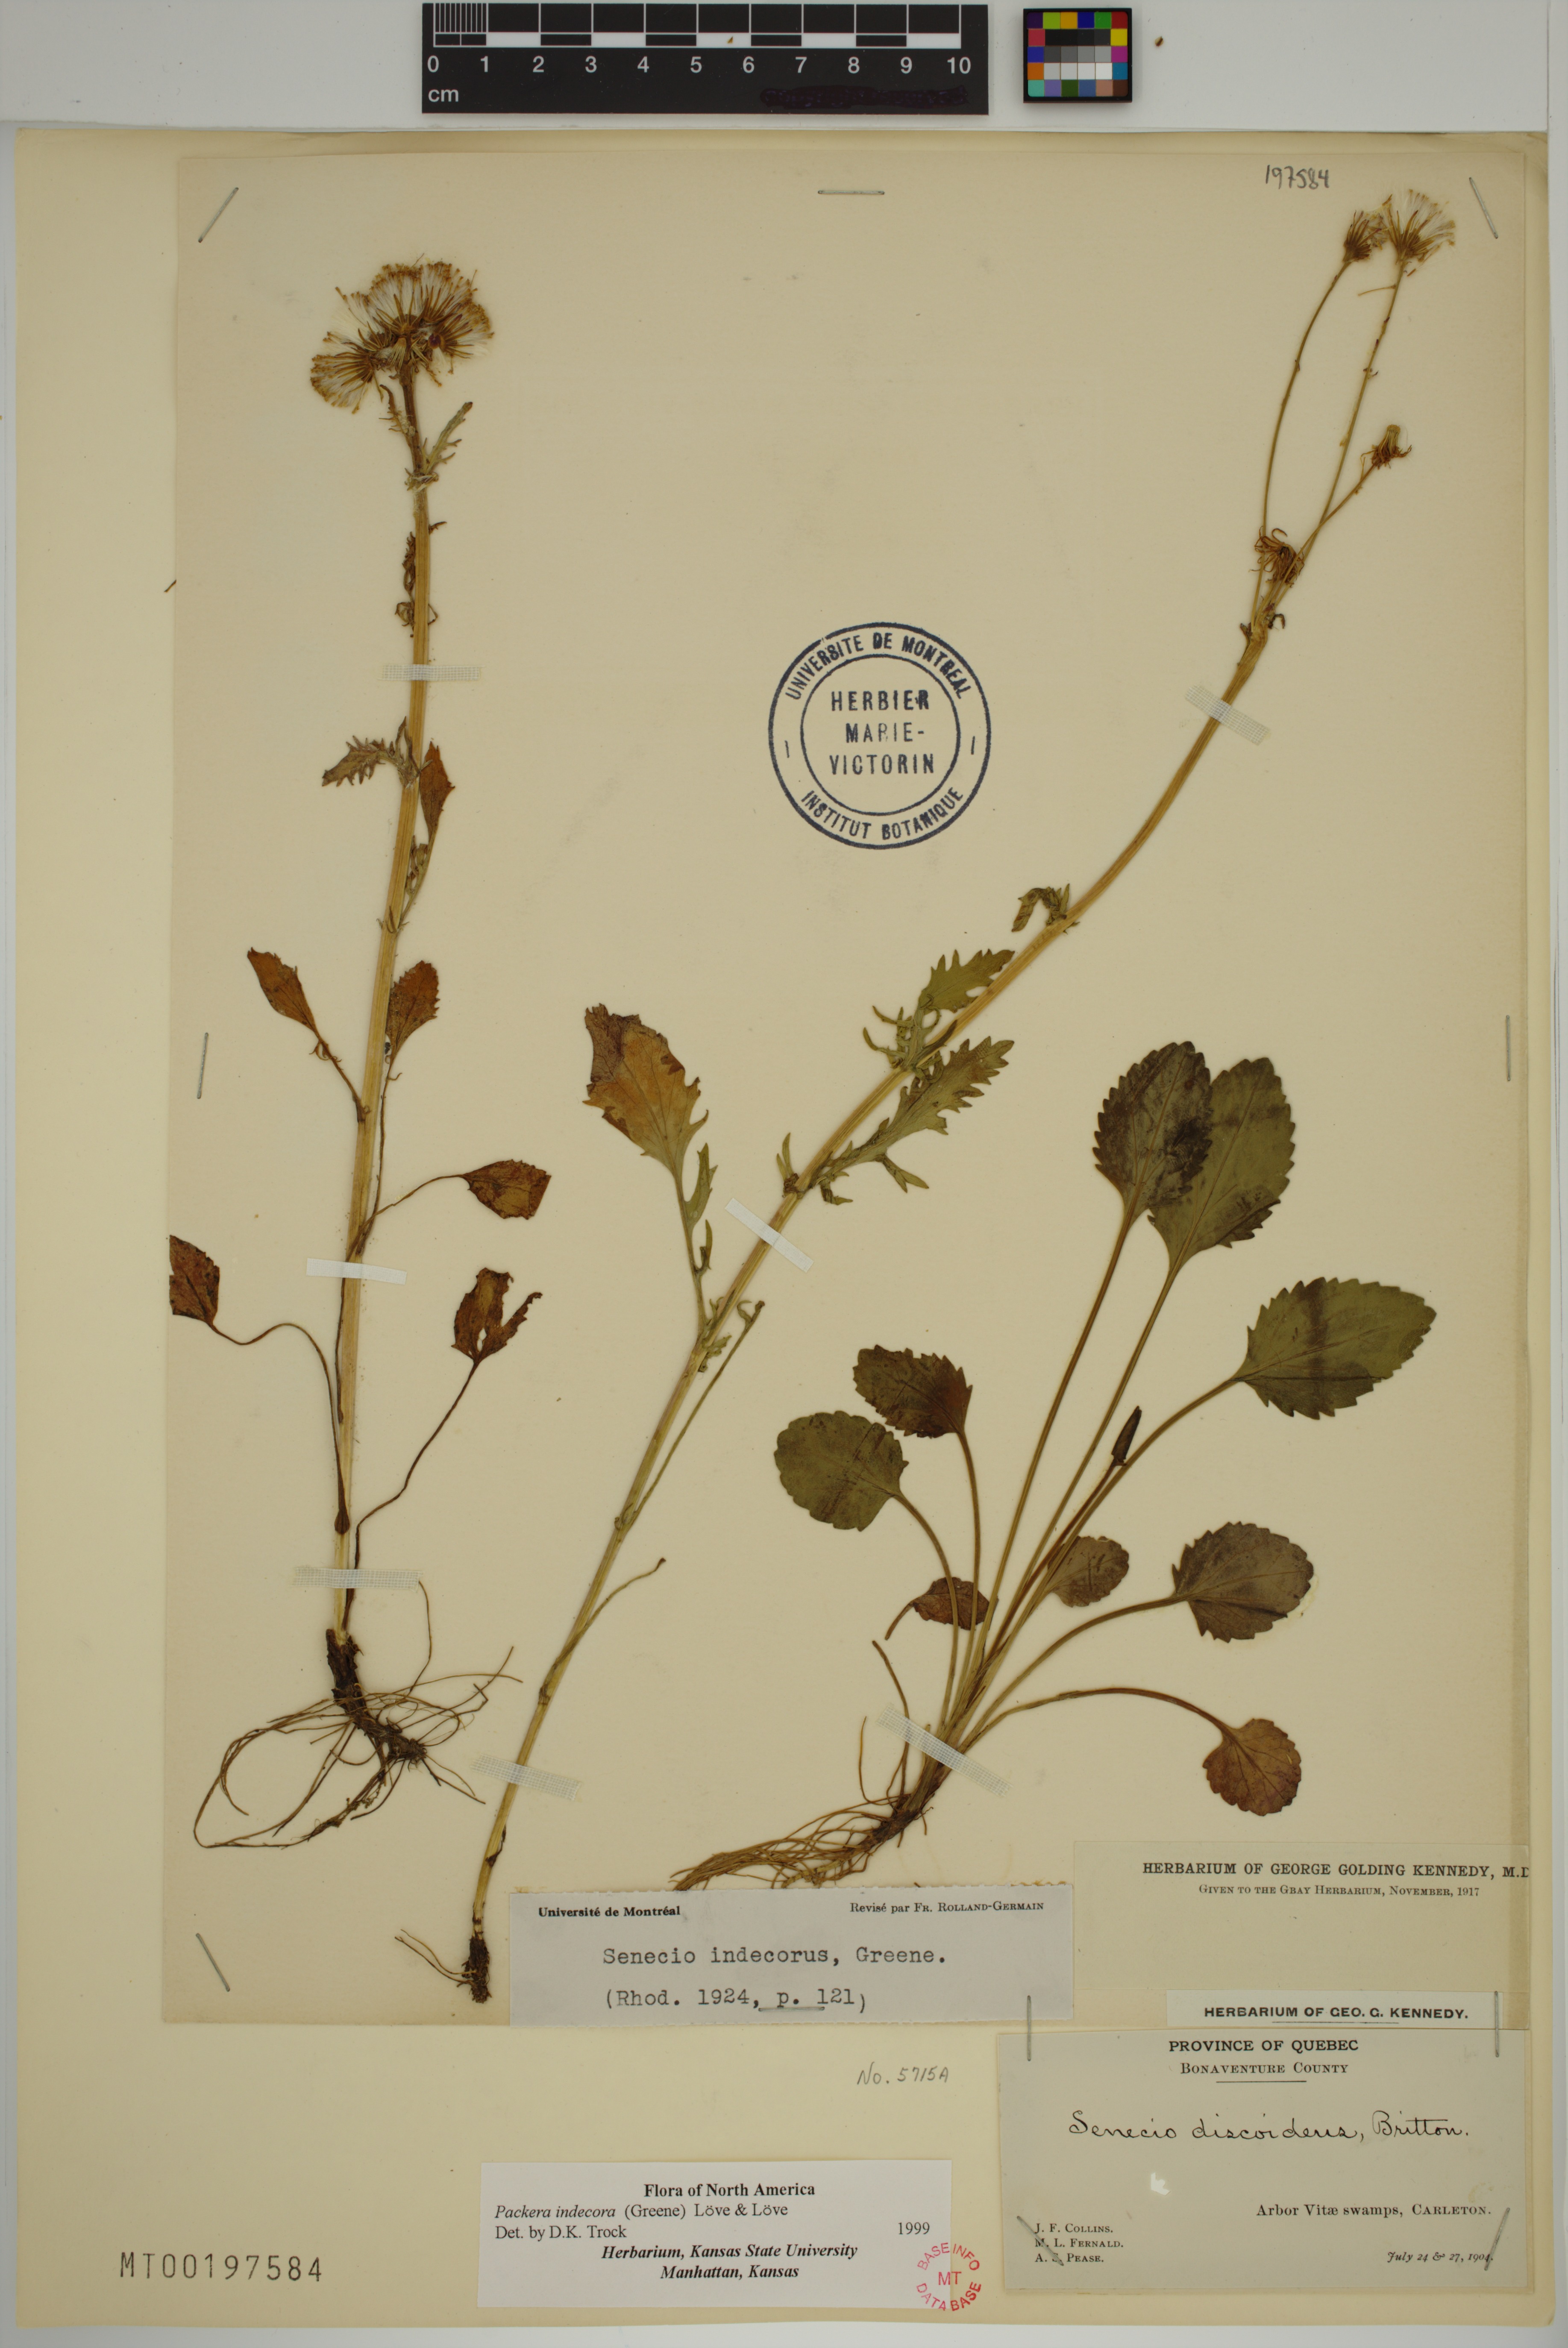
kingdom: Plantae
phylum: Tracheophyta
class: Magnoliopsida
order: Asterales
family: Asteraceae
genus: Packera
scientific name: Packera indecora
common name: Elegant groundsel
